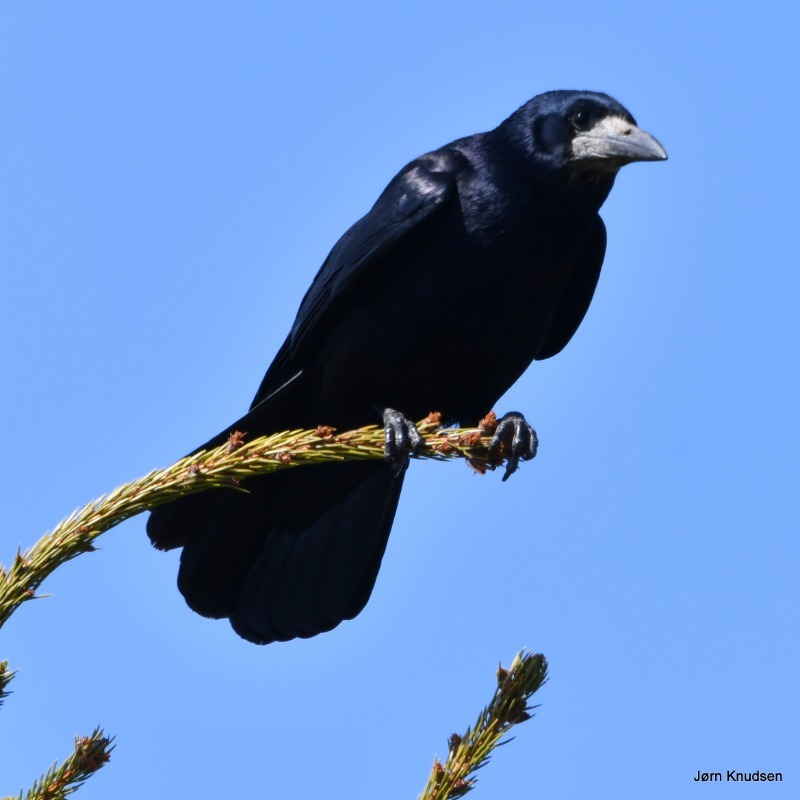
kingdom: Animalia
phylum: Chordata
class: Aves
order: Passeriformes
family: Corvidae
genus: Corvus
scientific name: Corvus frugilegus
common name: Råge
